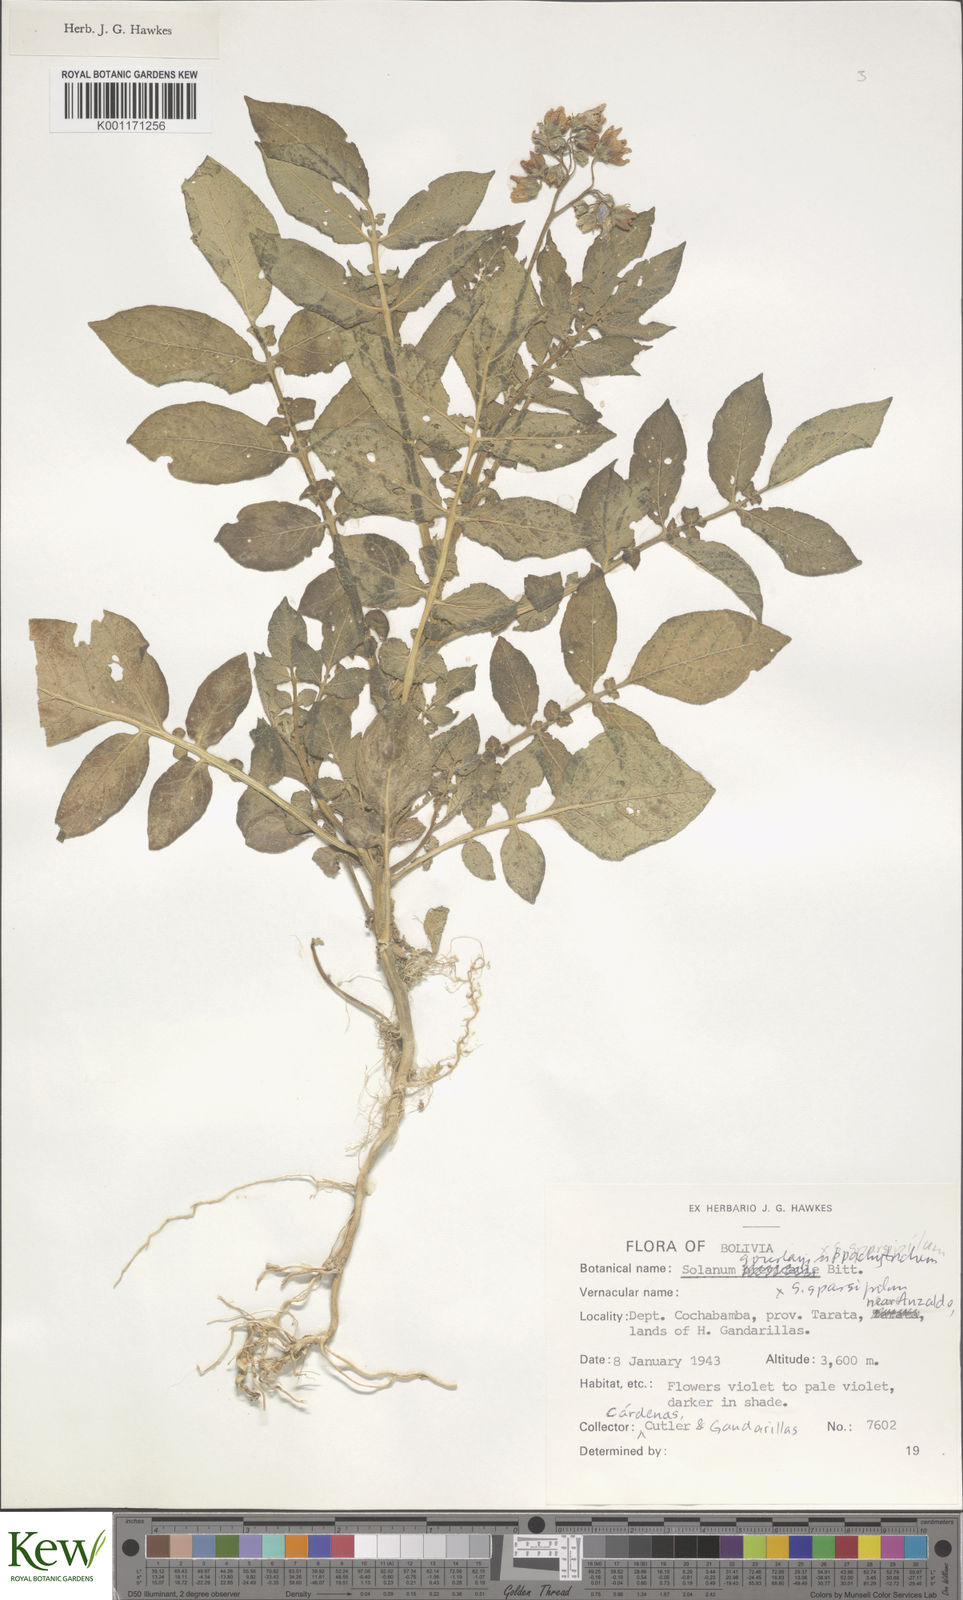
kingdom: Plantae
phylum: Tracheophyta
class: Magnoliopsida
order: Solanales
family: Solanaceae
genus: Solanum
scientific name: Solanum brevicaule
